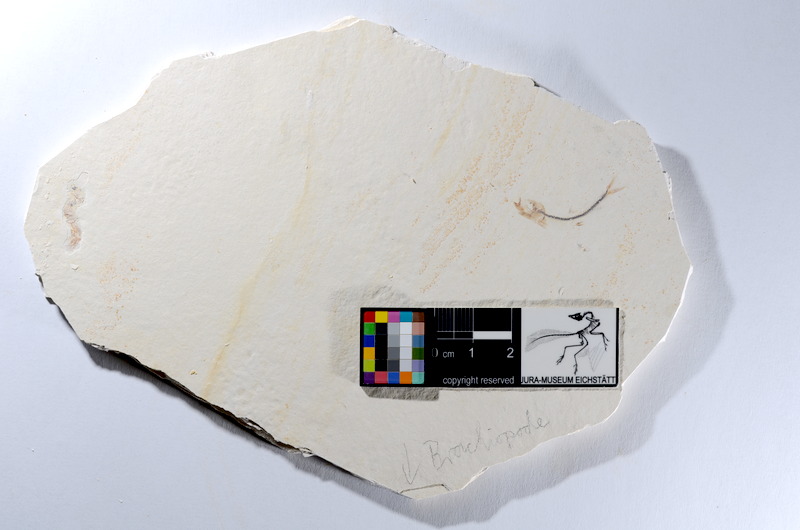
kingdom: Animalia
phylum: Chordata
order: Salmoniformes
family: Orthogonikleithridae
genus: Orthogonikleithrus
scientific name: Orthogonikleithrus hoelli
